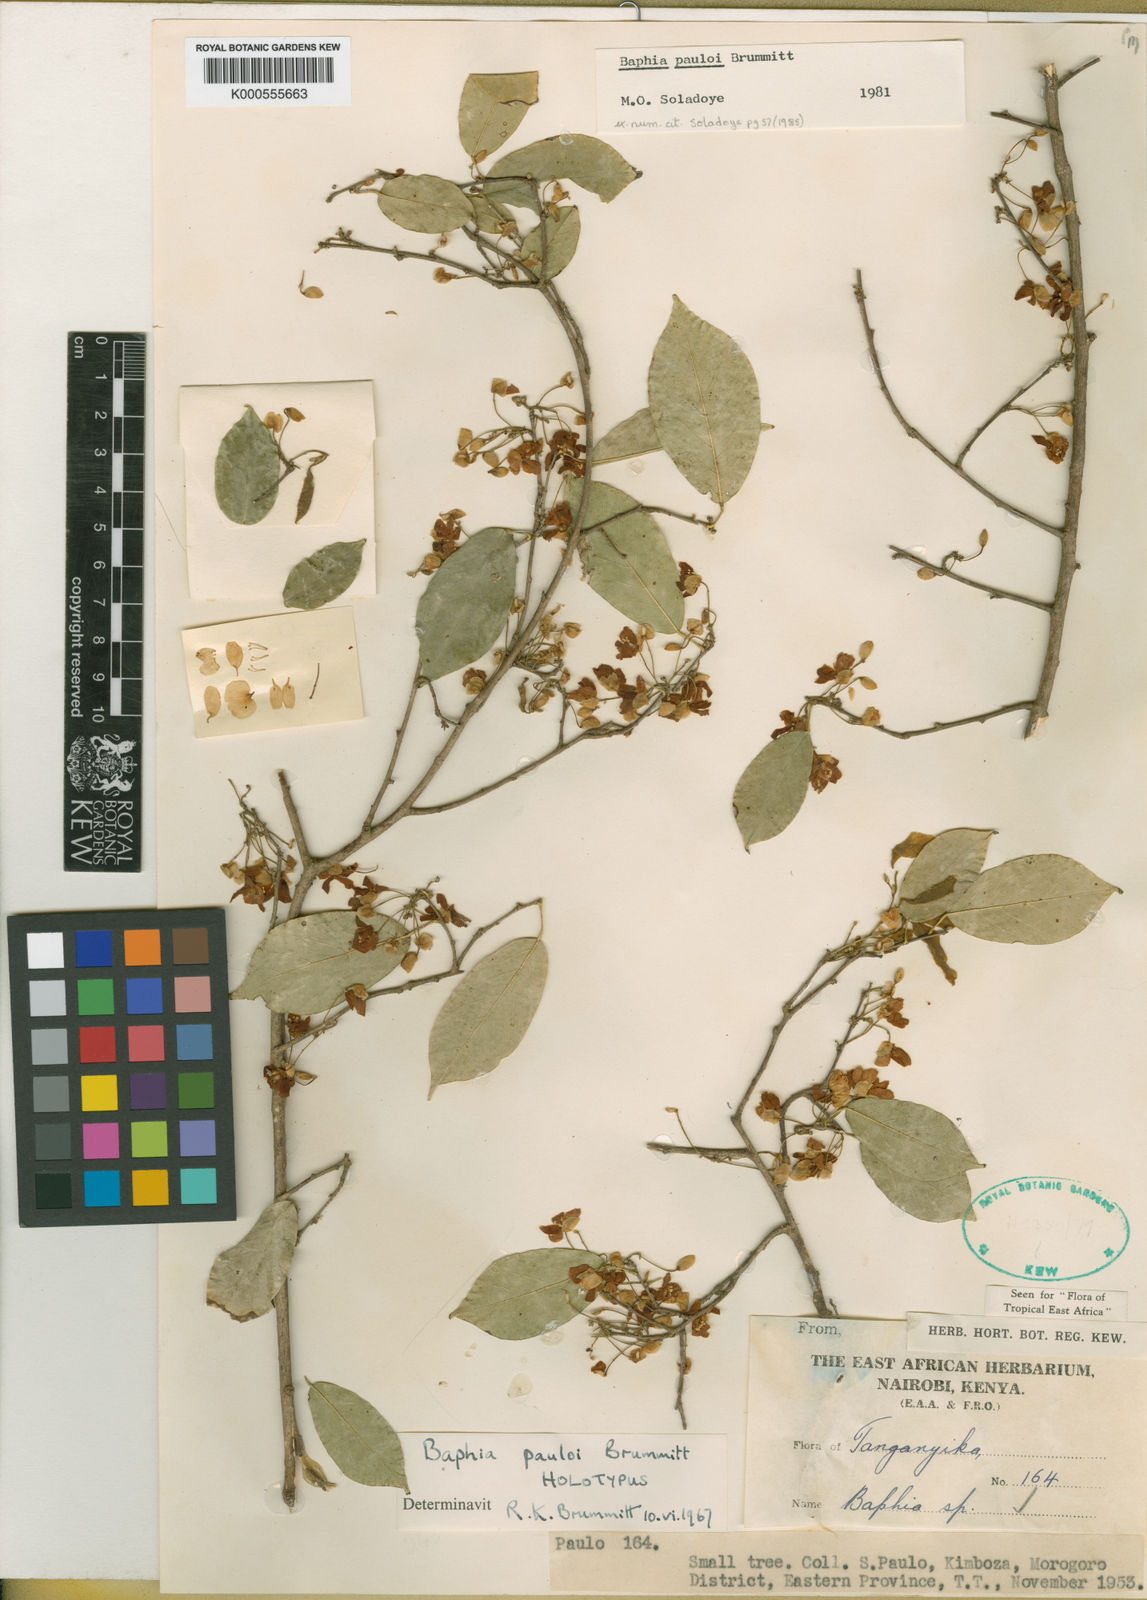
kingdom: Plantae
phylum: Tracheophyta
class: Magnoliopsida
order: Fabales
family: Fabaceae
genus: Baphia
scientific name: Baphia pauloi
